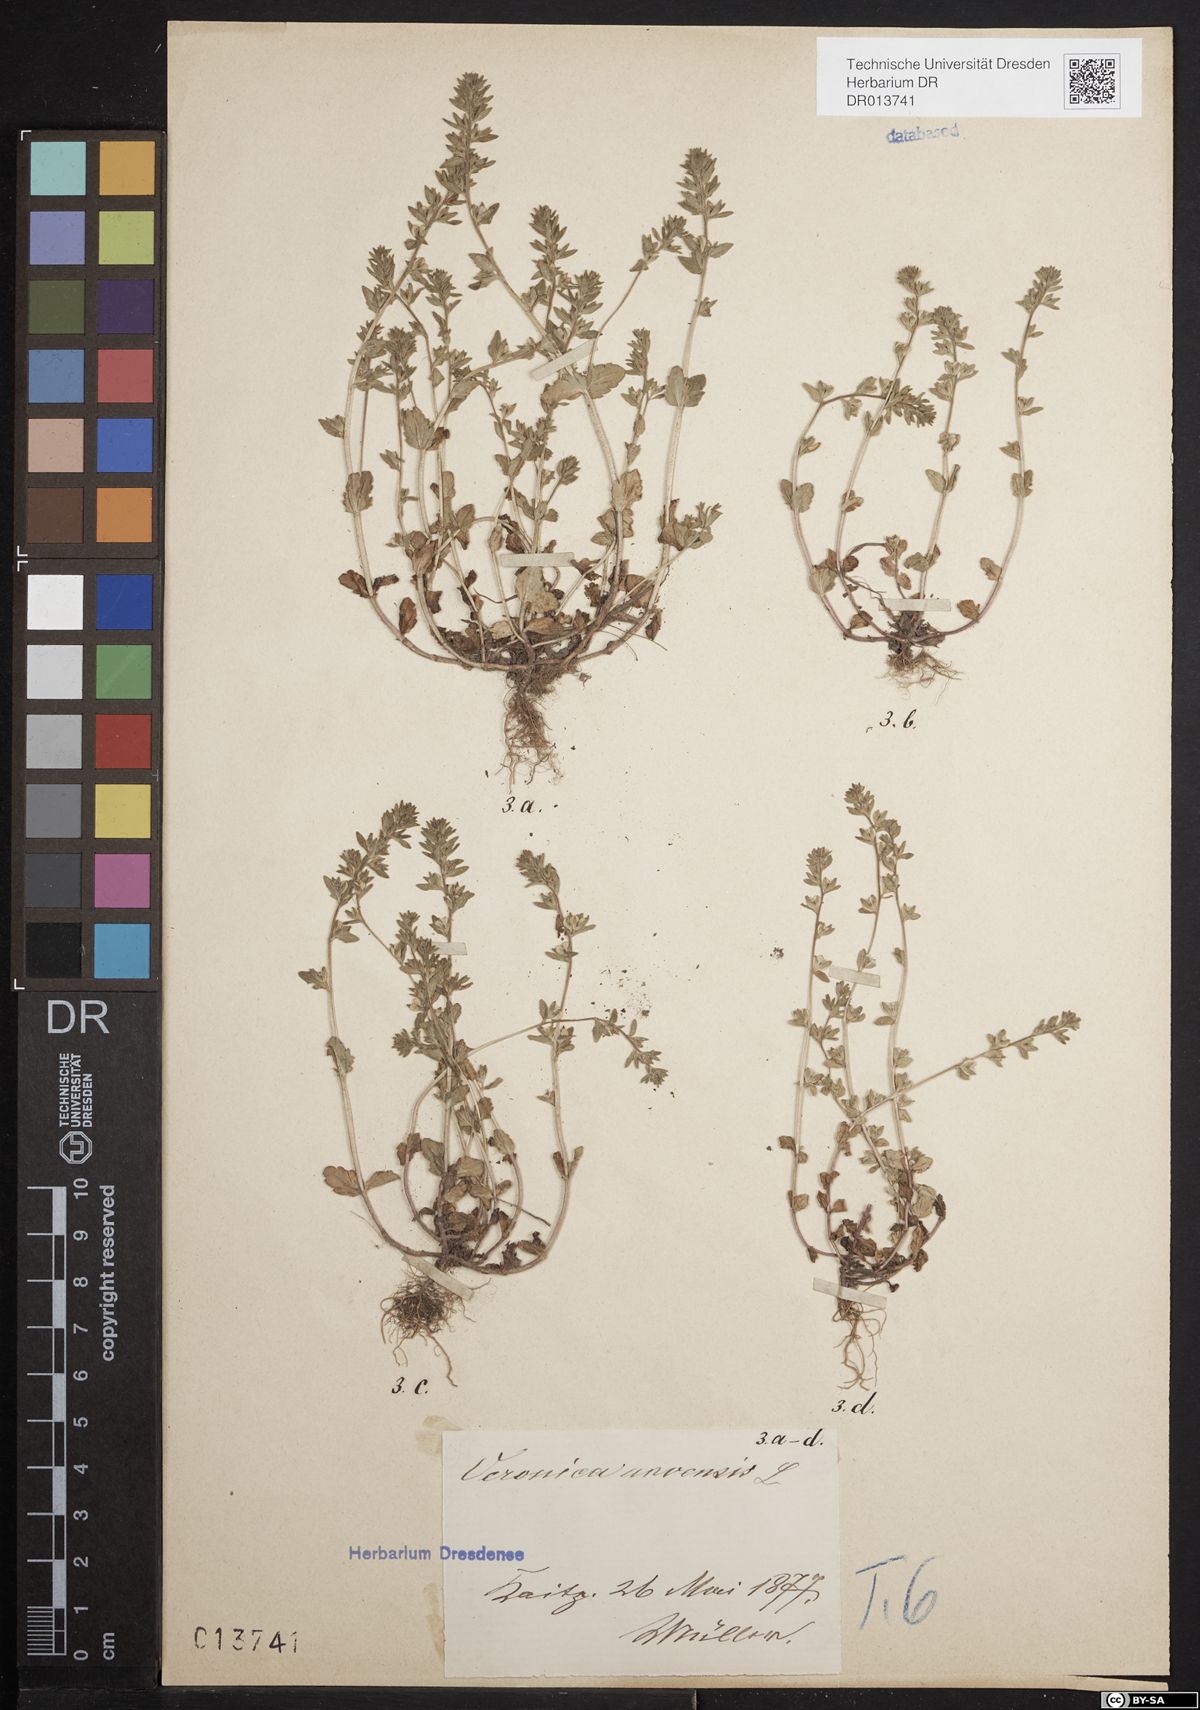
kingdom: Plantae
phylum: Tracheophyta
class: Magnoliopsida
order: Lamiales
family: Plantaginaceae
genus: Veronica
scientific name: Veronica arvensis
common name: Corn speedwell
